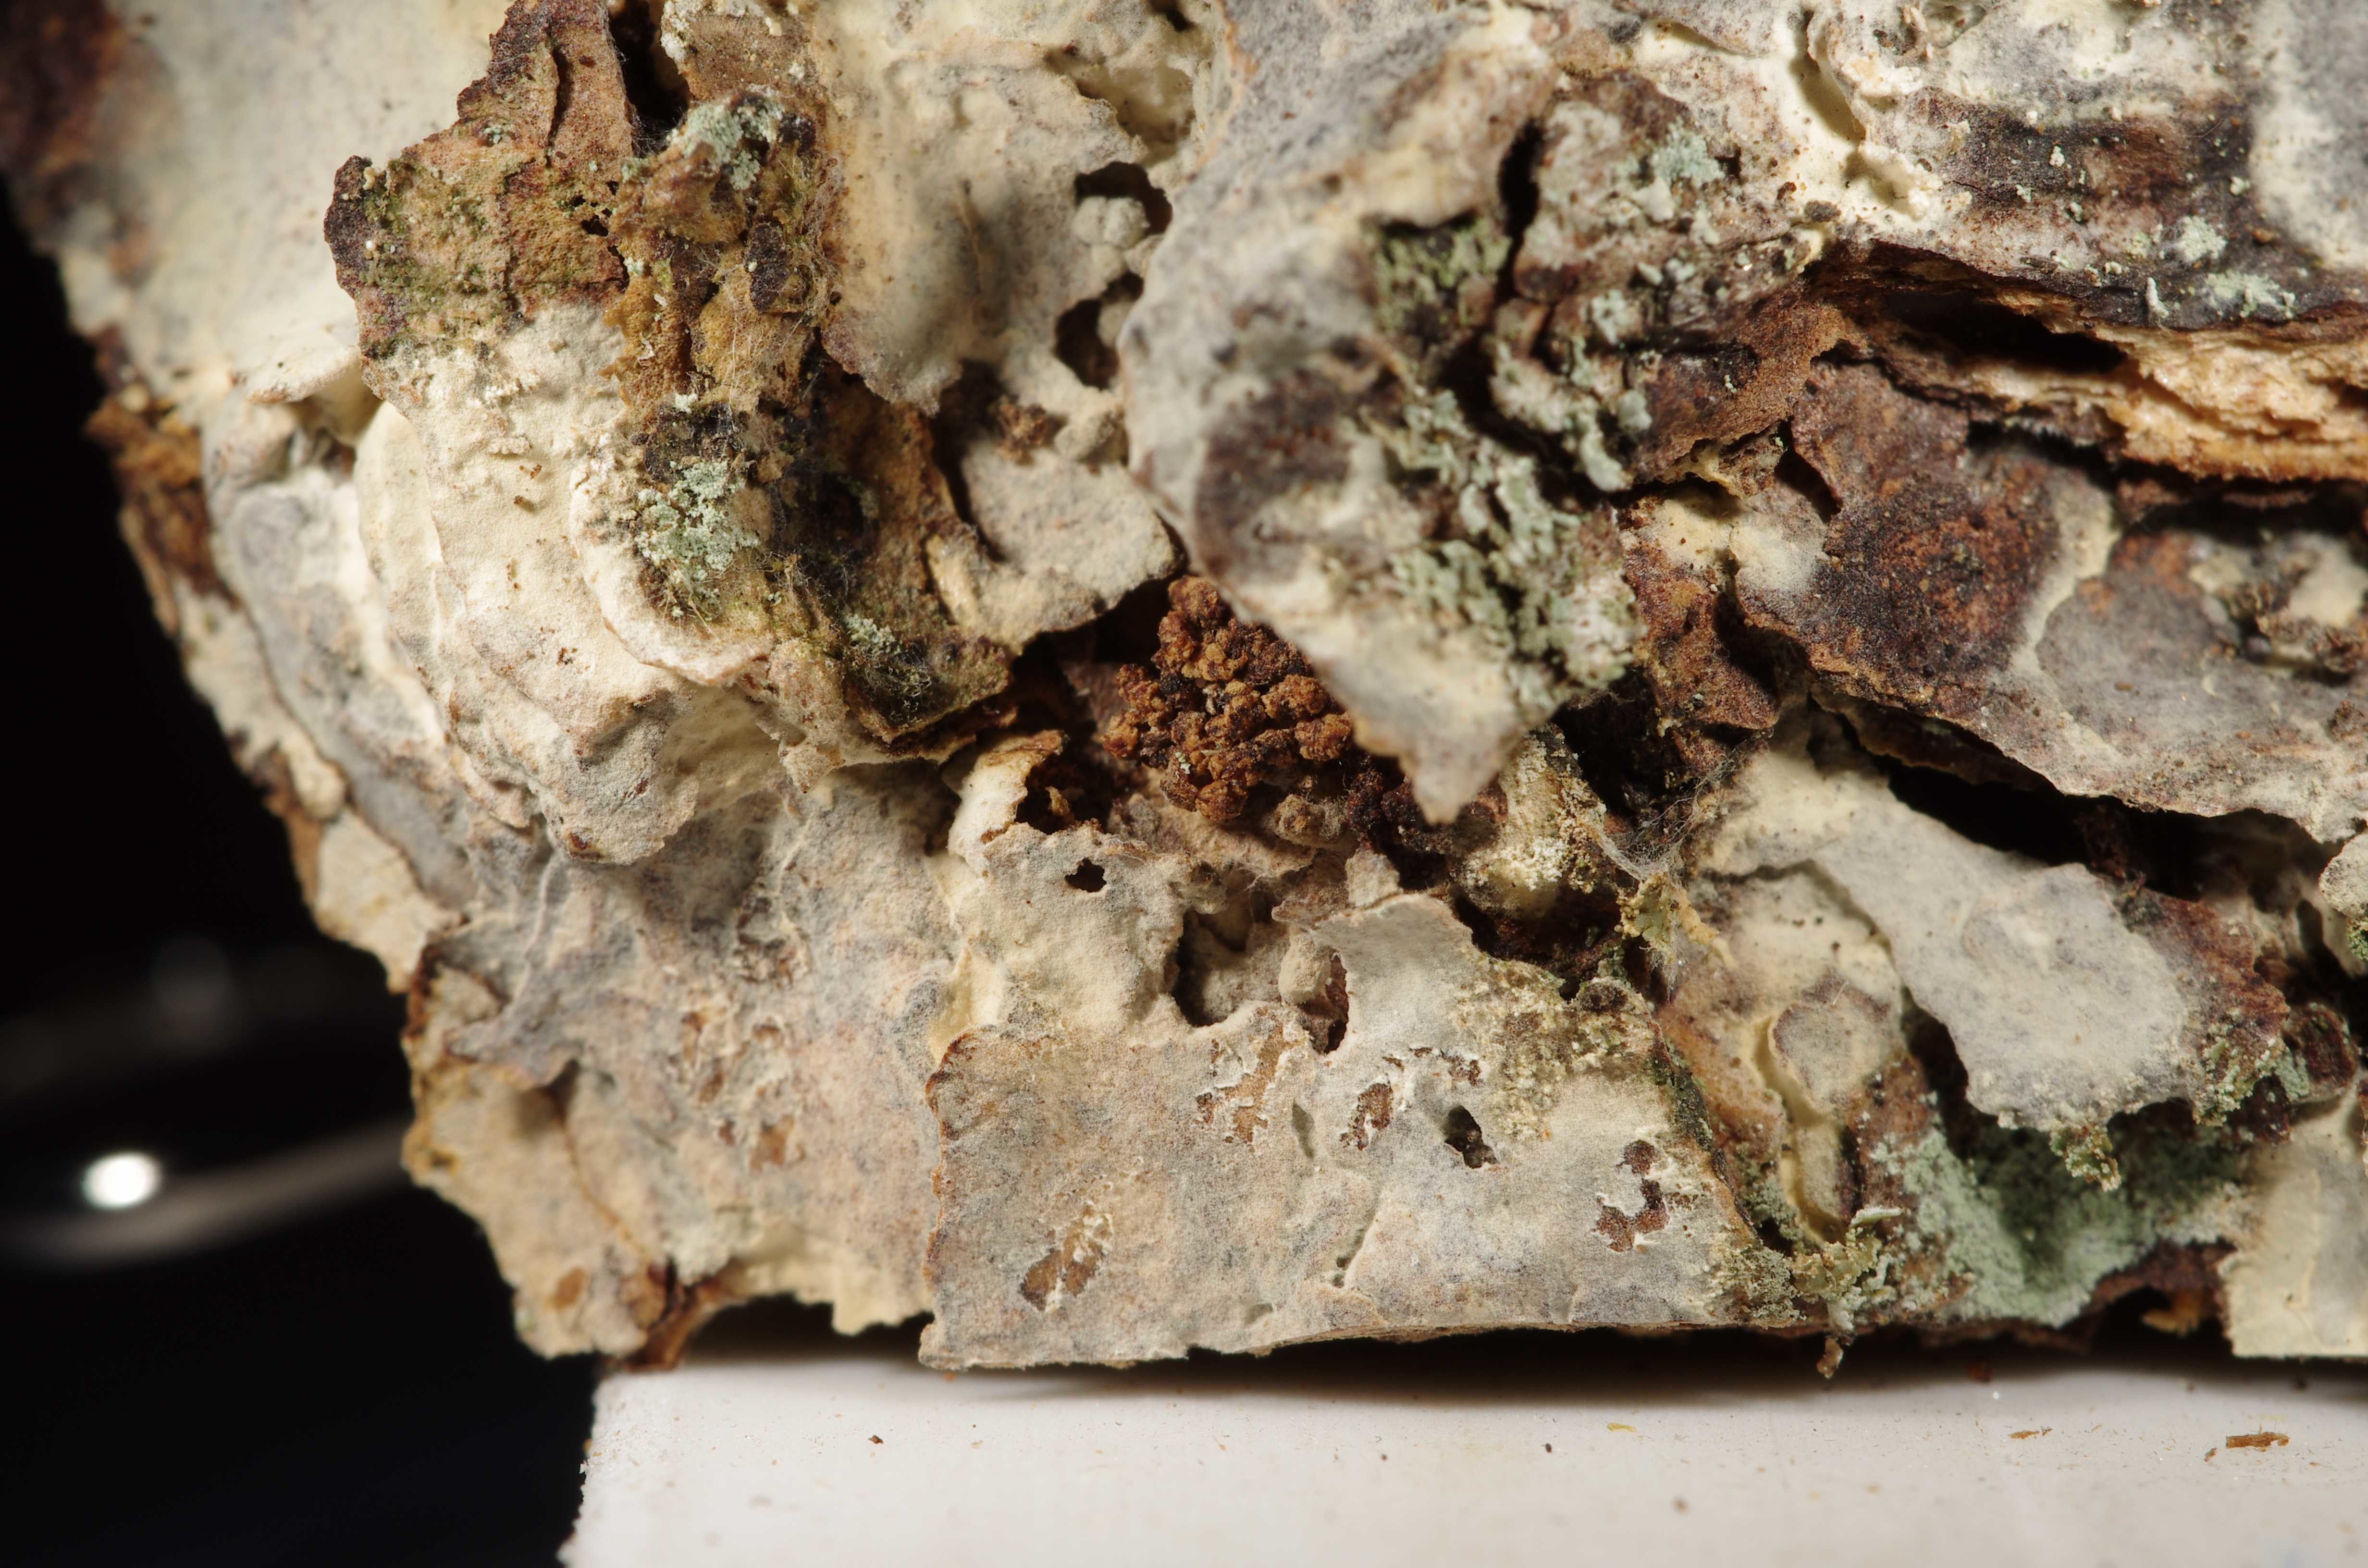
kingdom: Fungi
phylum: Basidiomycota
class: Agaricomycetes
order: Russulales
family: Peniophoraceae
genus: Scytinostroma
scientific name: Scytinostroma praestans
